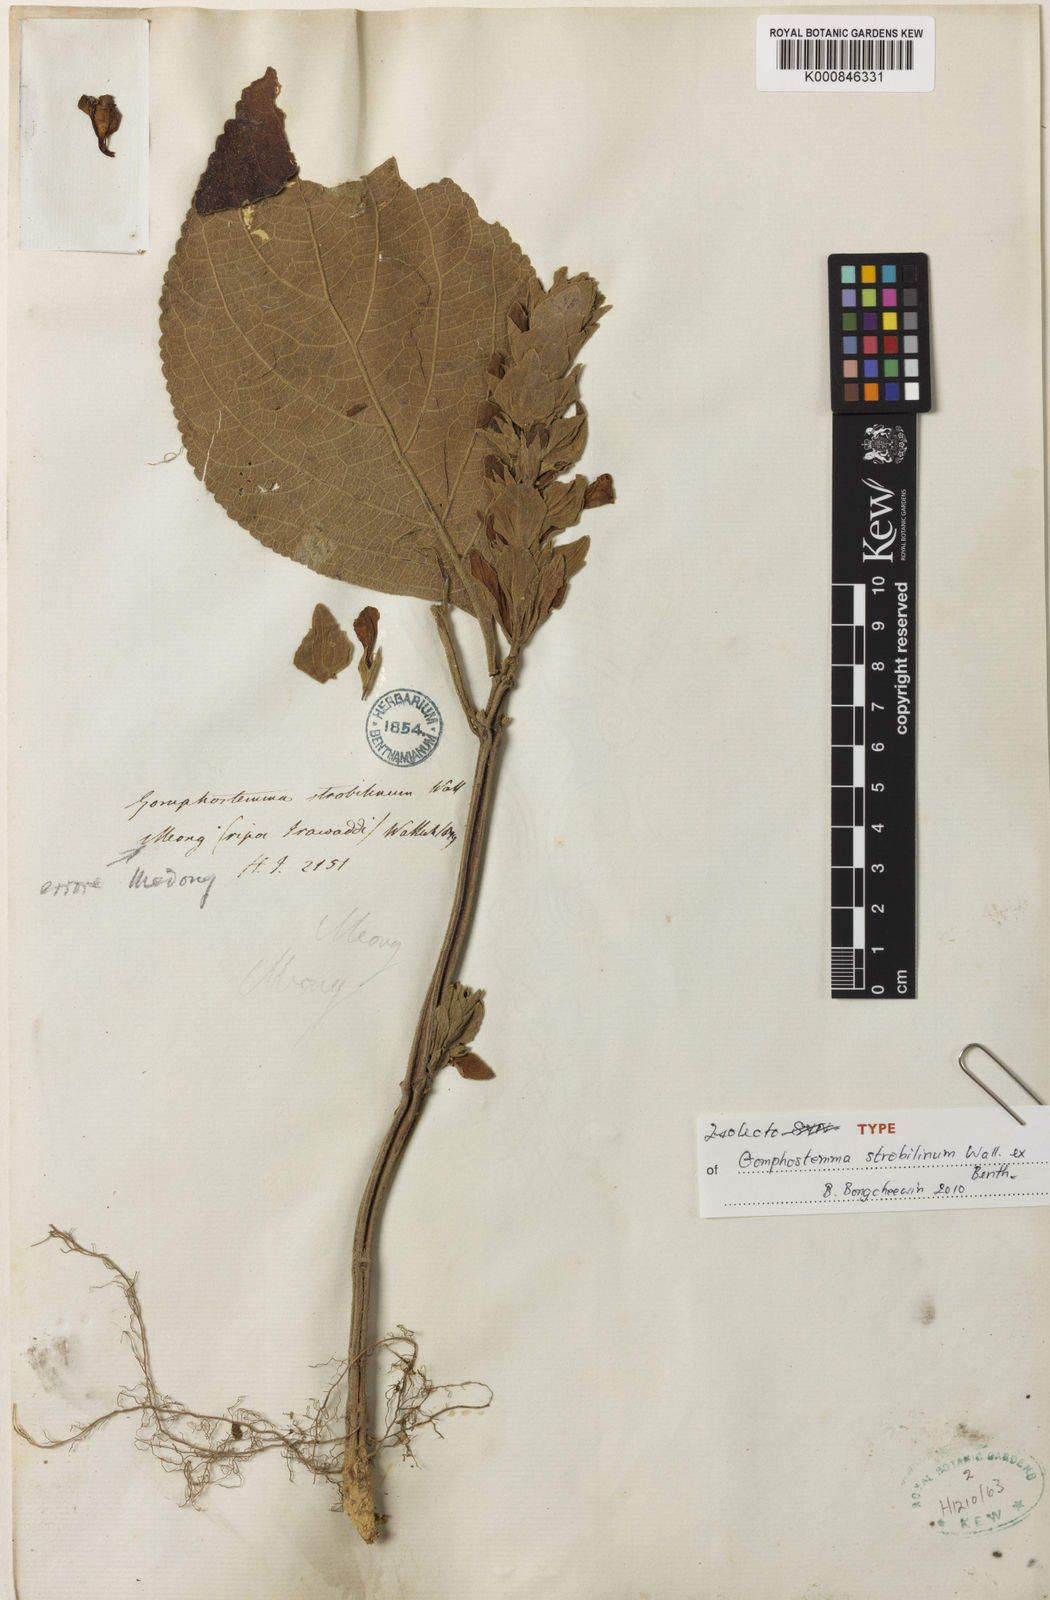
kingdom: Plantae
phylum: Tracheophyta
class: Magnoliopsida
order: Lamiales
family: Lamiaceae
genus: Gomphostemma
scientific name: Gomphostemma strobilinum
